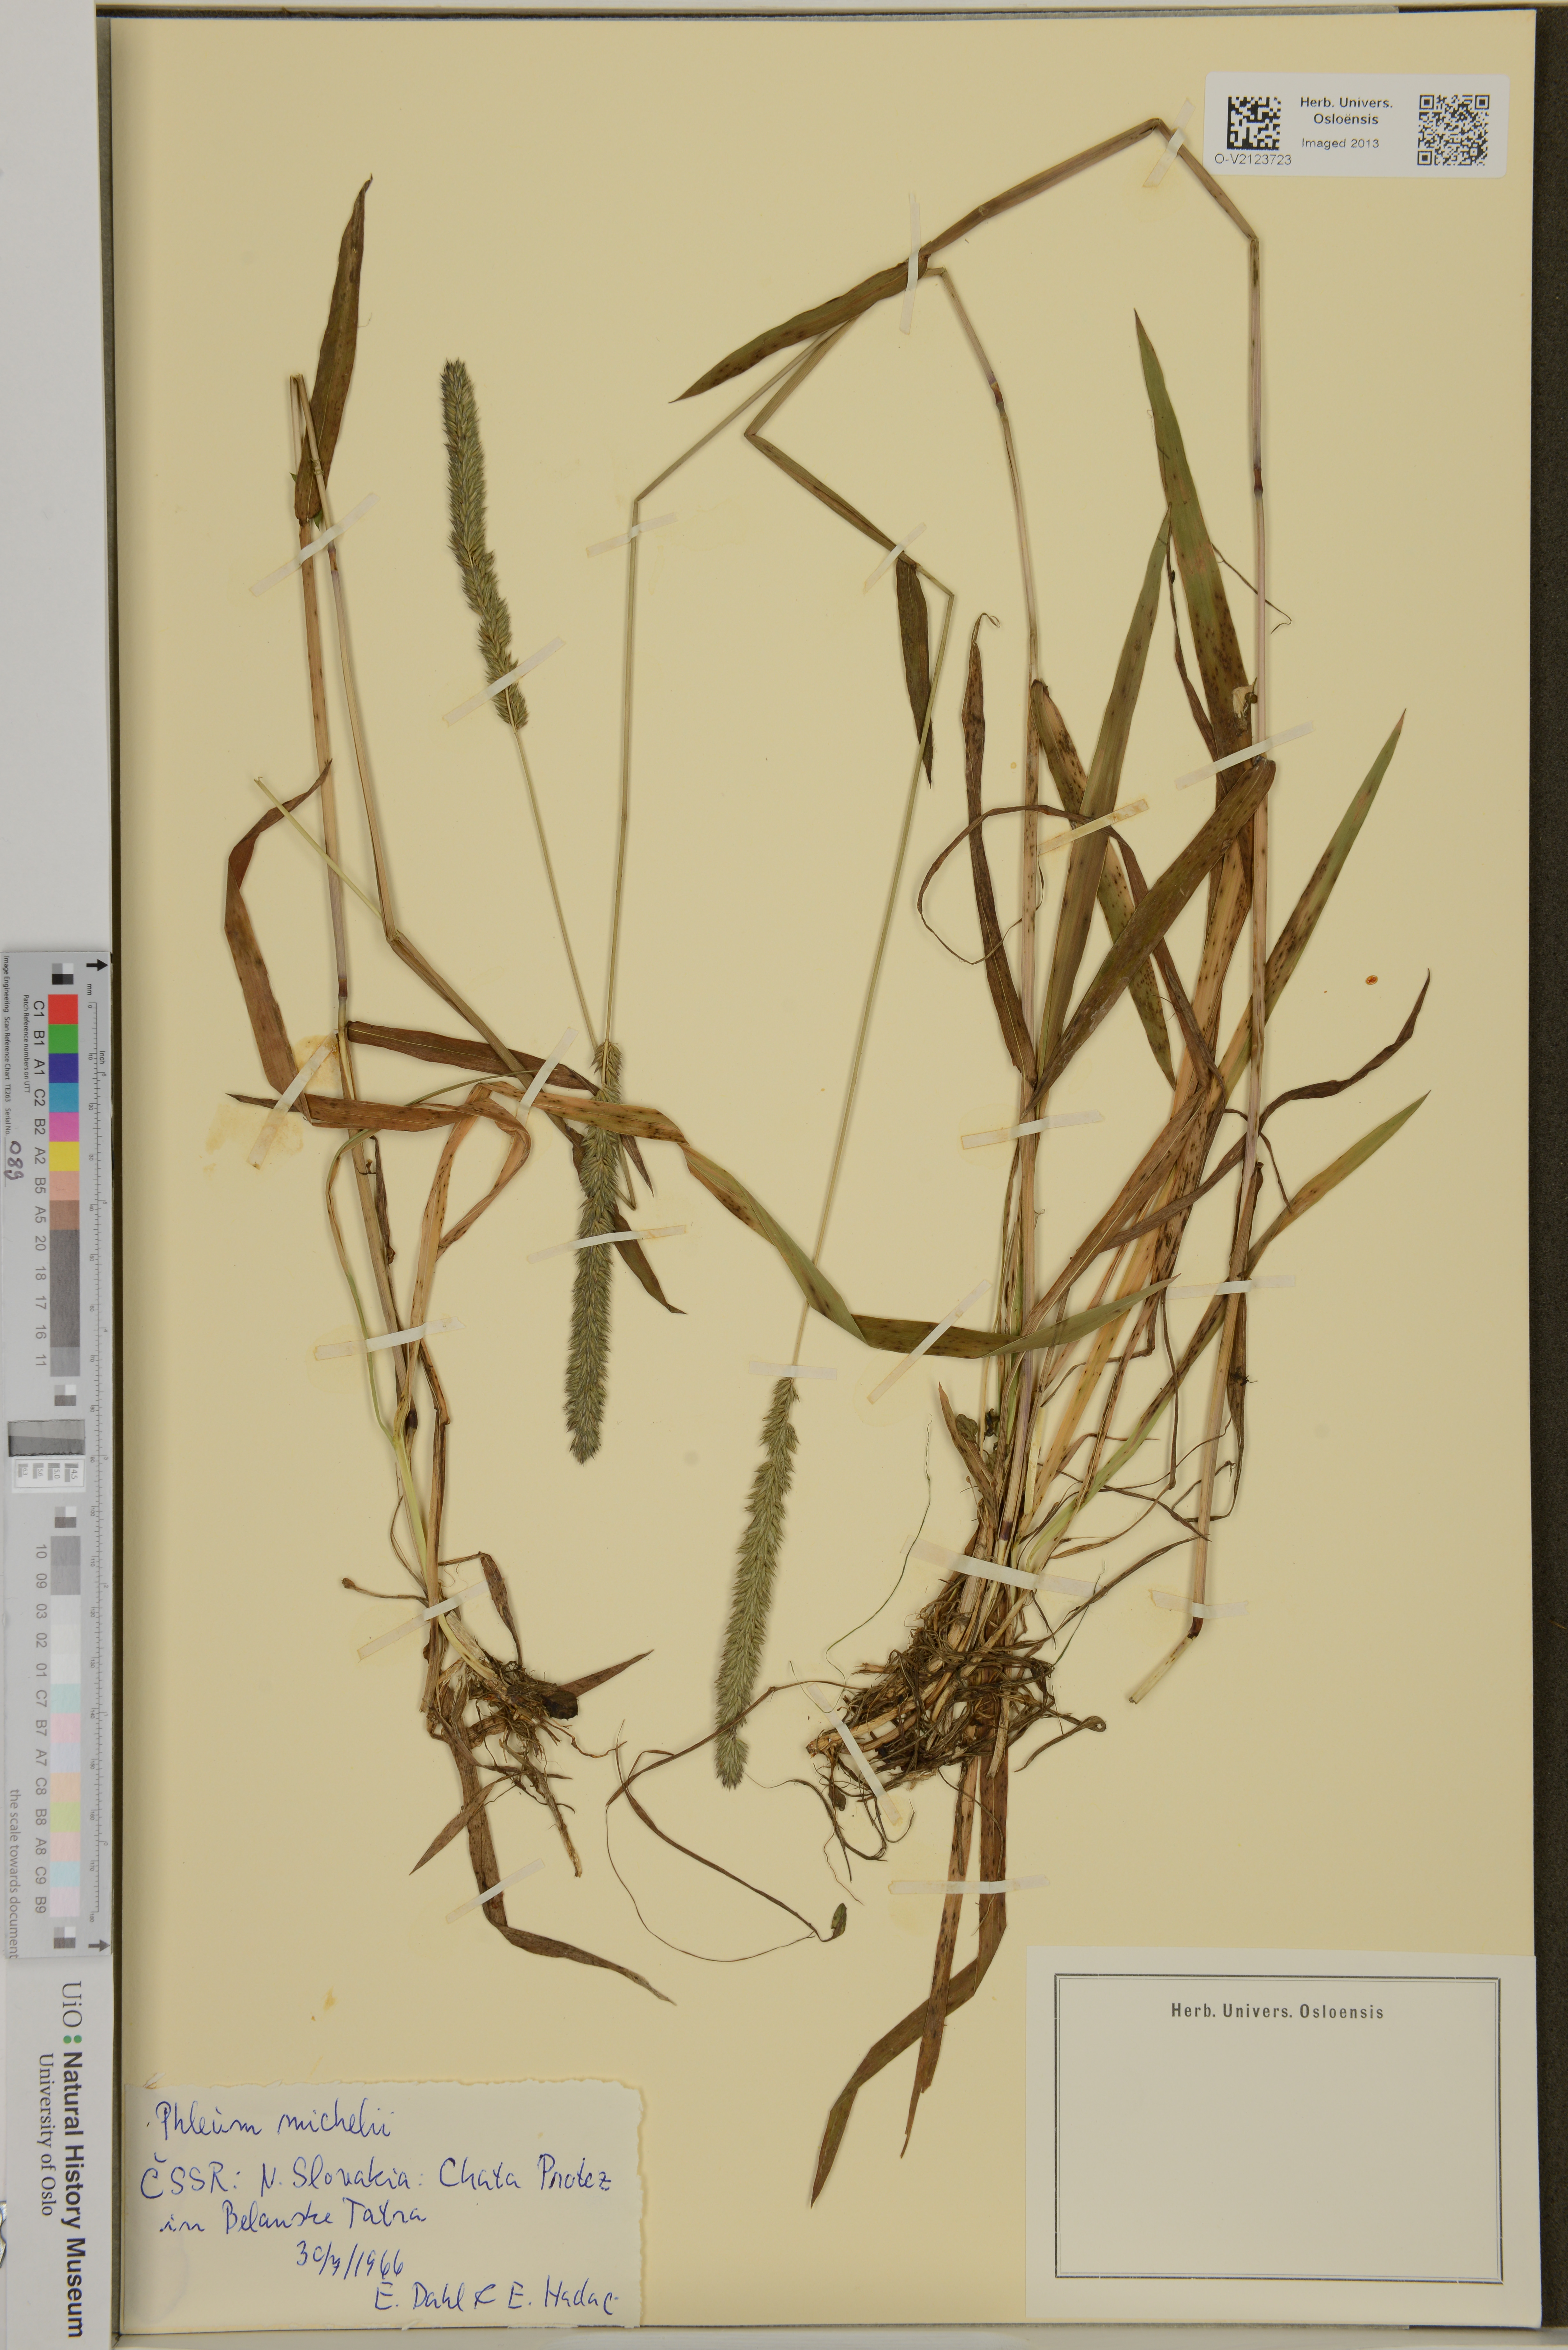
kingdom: Plantae
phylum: Tracheophyta
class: Liliopsida
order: Poales
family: Poaceae
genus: Phleum
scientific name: Phleum hirsutum
